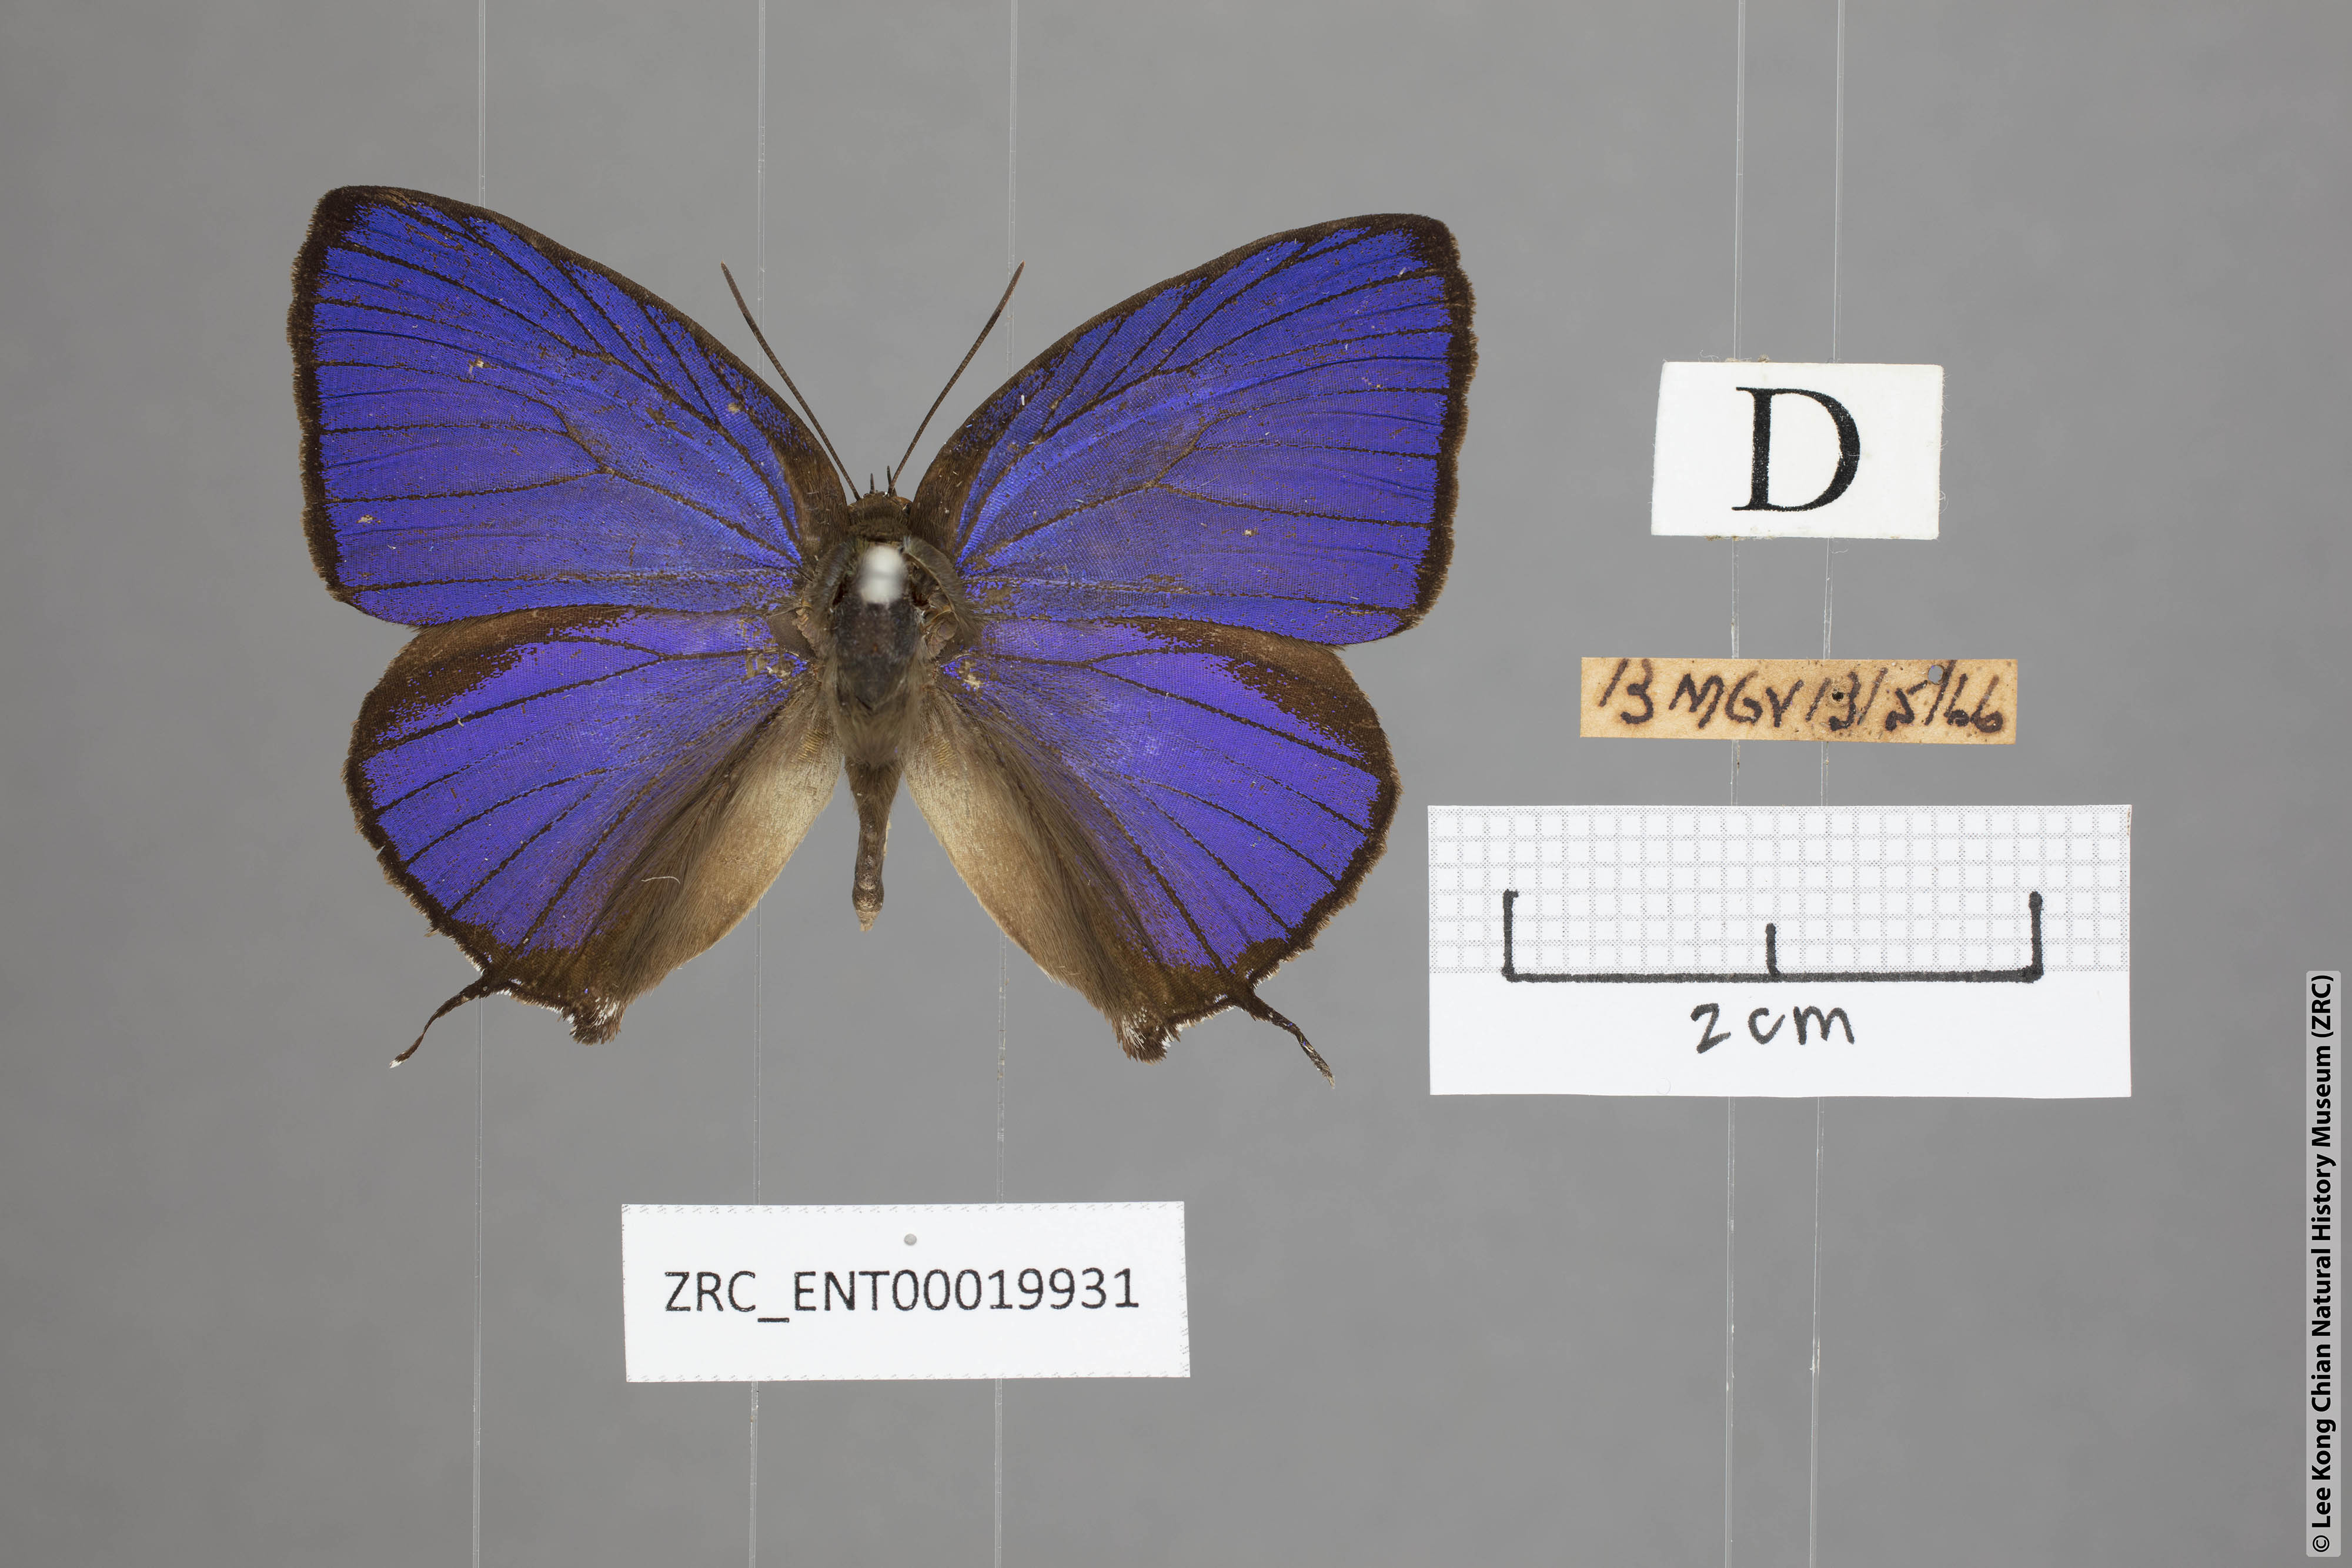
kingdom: Animalia
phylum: Arthropoda
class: Insecta
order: Lepidoptera
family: Lycaenidae
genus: Arhopala
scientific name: Arhopala zambra
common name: Zambra oakblue
